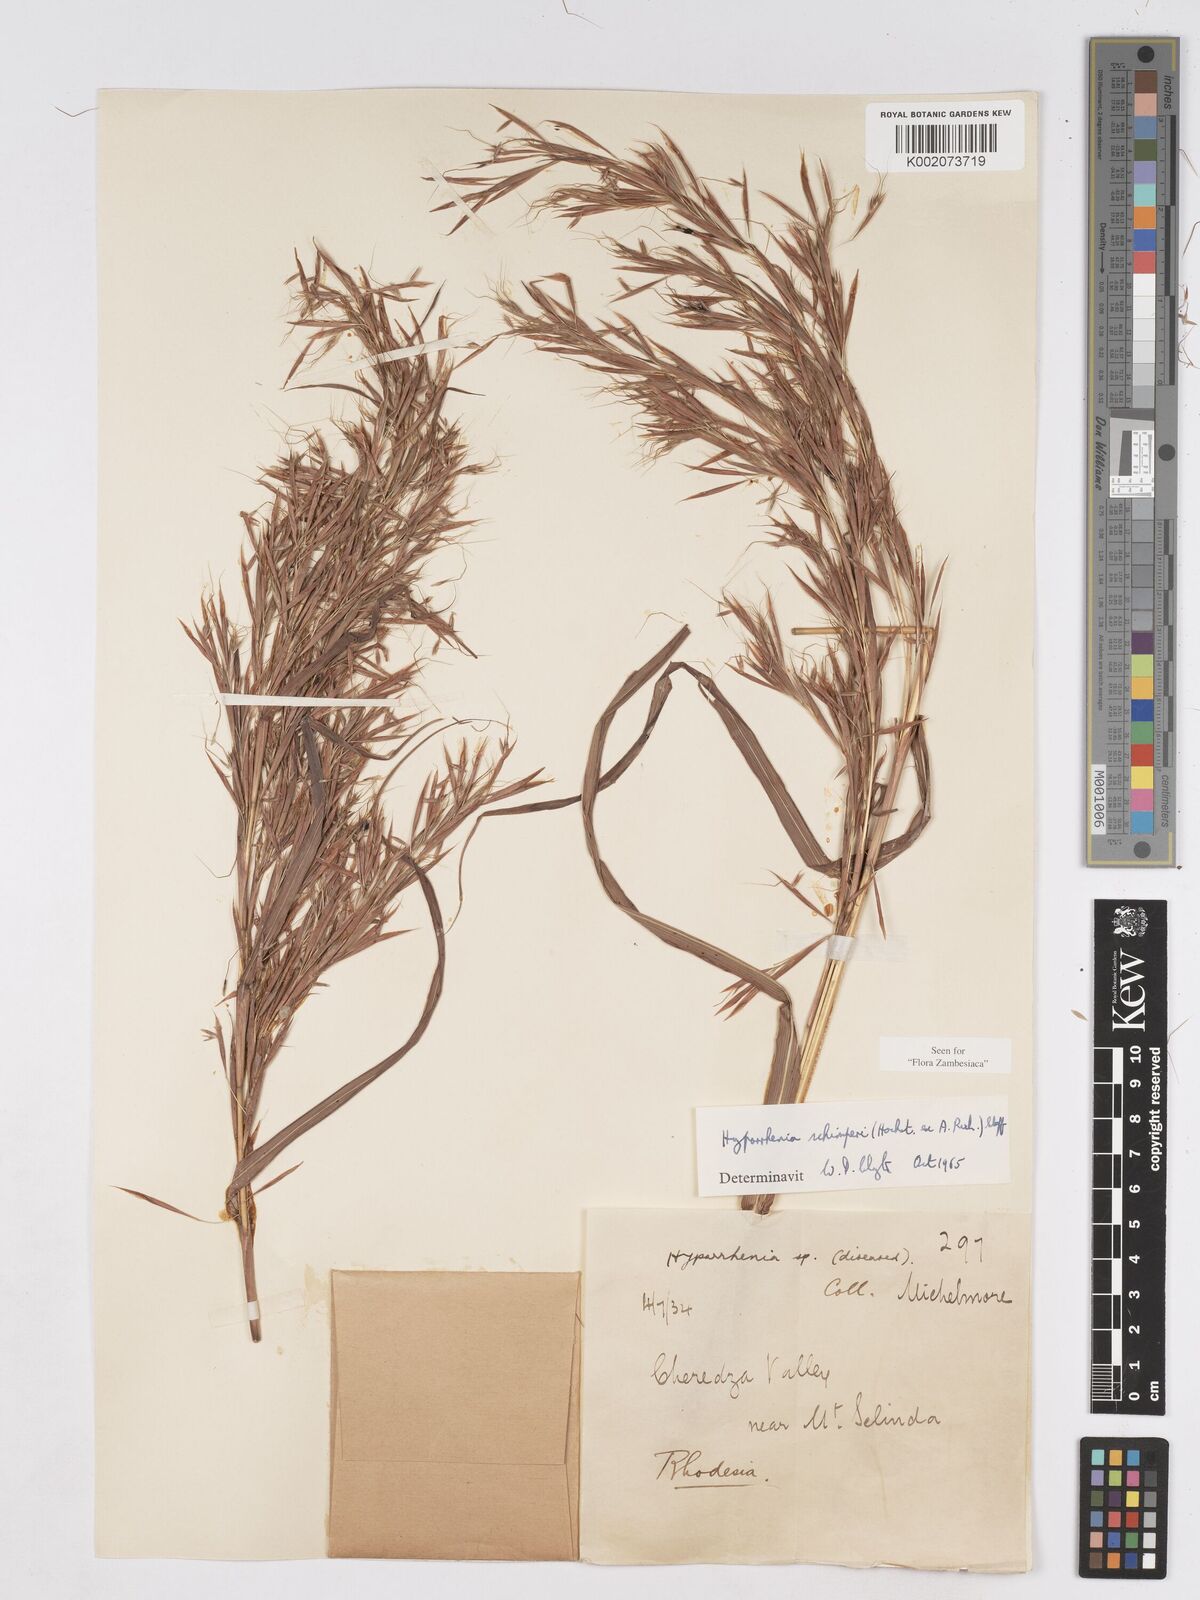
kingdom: Plantae
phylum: Tracheophyta
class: Liliopsida
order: Poales
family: Poaceae
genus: Hyparrhenia
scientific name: Hyparrhenia schimperi
